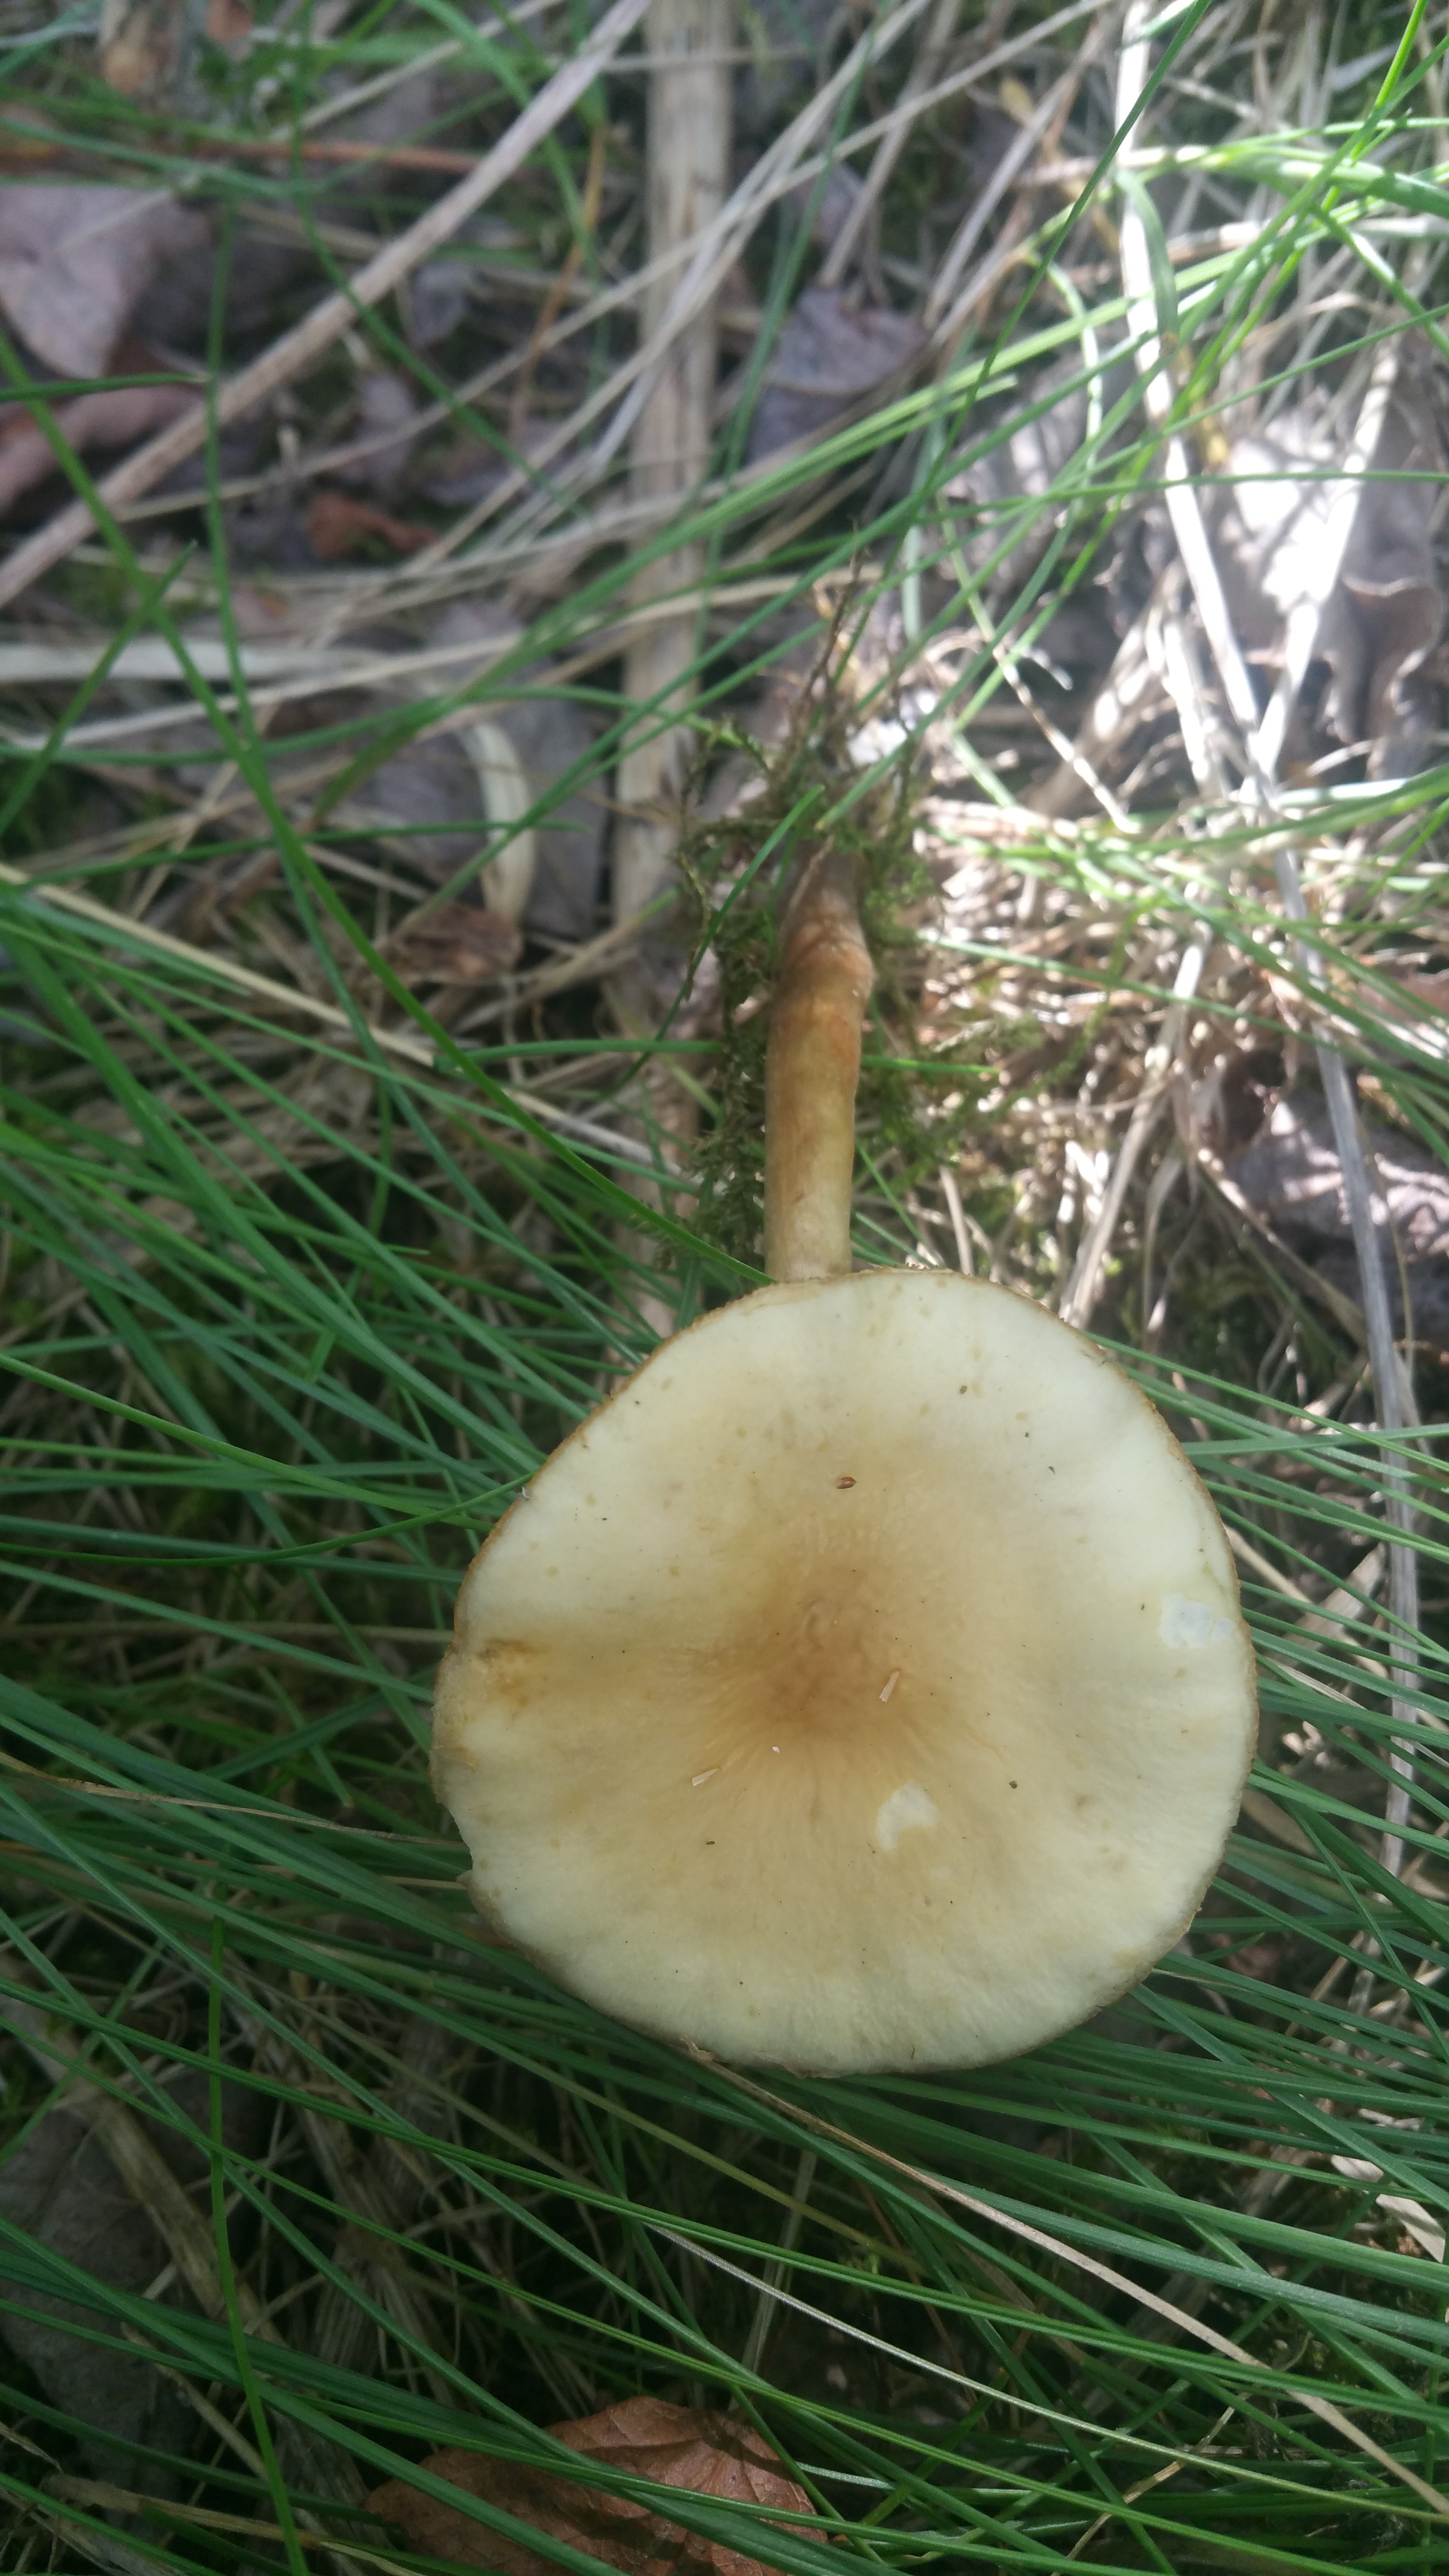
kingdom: Fungi
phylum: Basidiomycota
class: Agaricomycetes
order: Agaricales
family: Strophariaceae
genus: Agrocybe
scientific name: Agrocybe praecox
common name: Spring fieldcap
